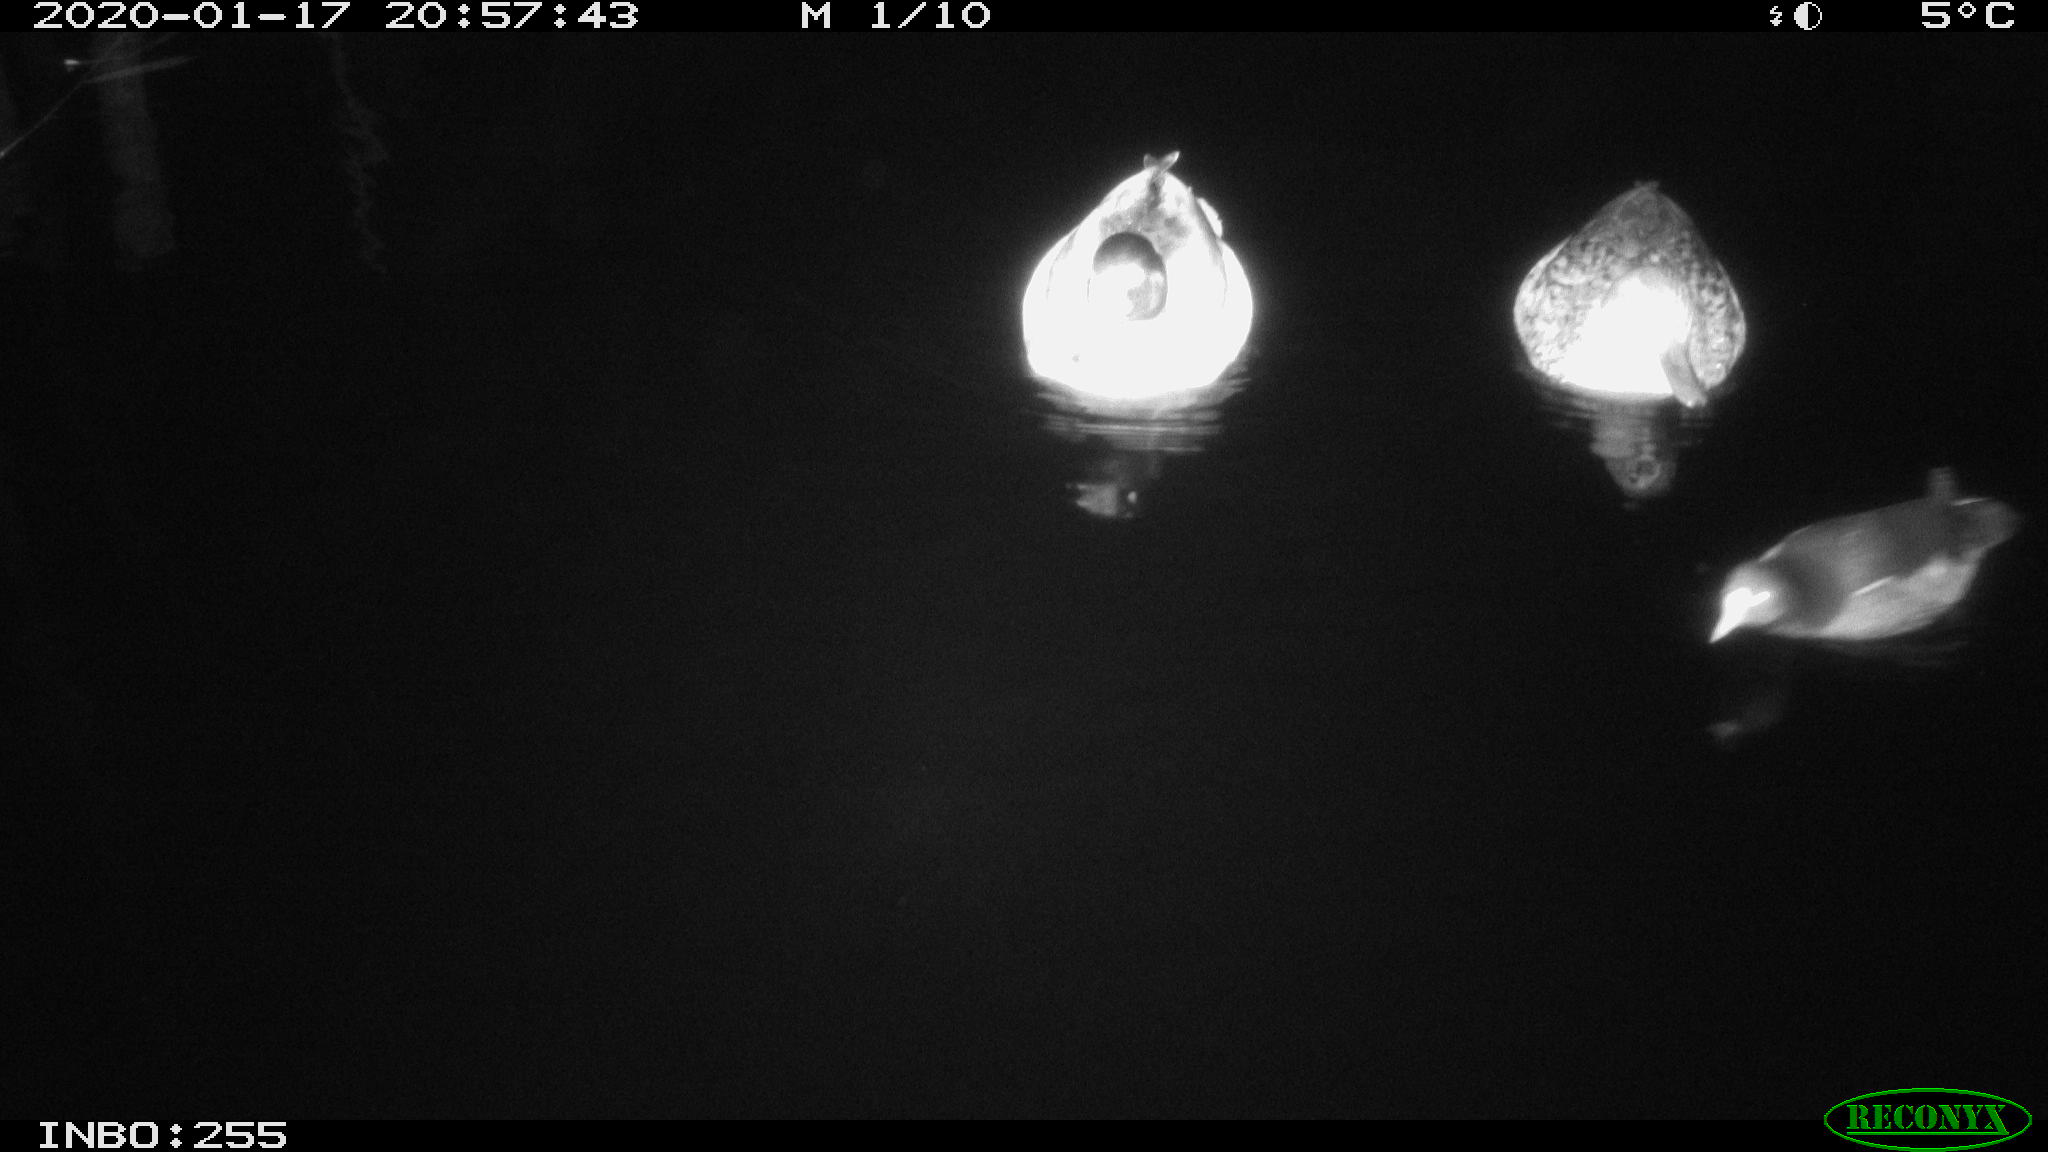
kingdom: Animalia
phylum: Chordata
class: Aves
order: Gruiformes
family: Rallidae
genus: Gallinula
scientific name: Gallinula chloropus
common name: Common moorhen
